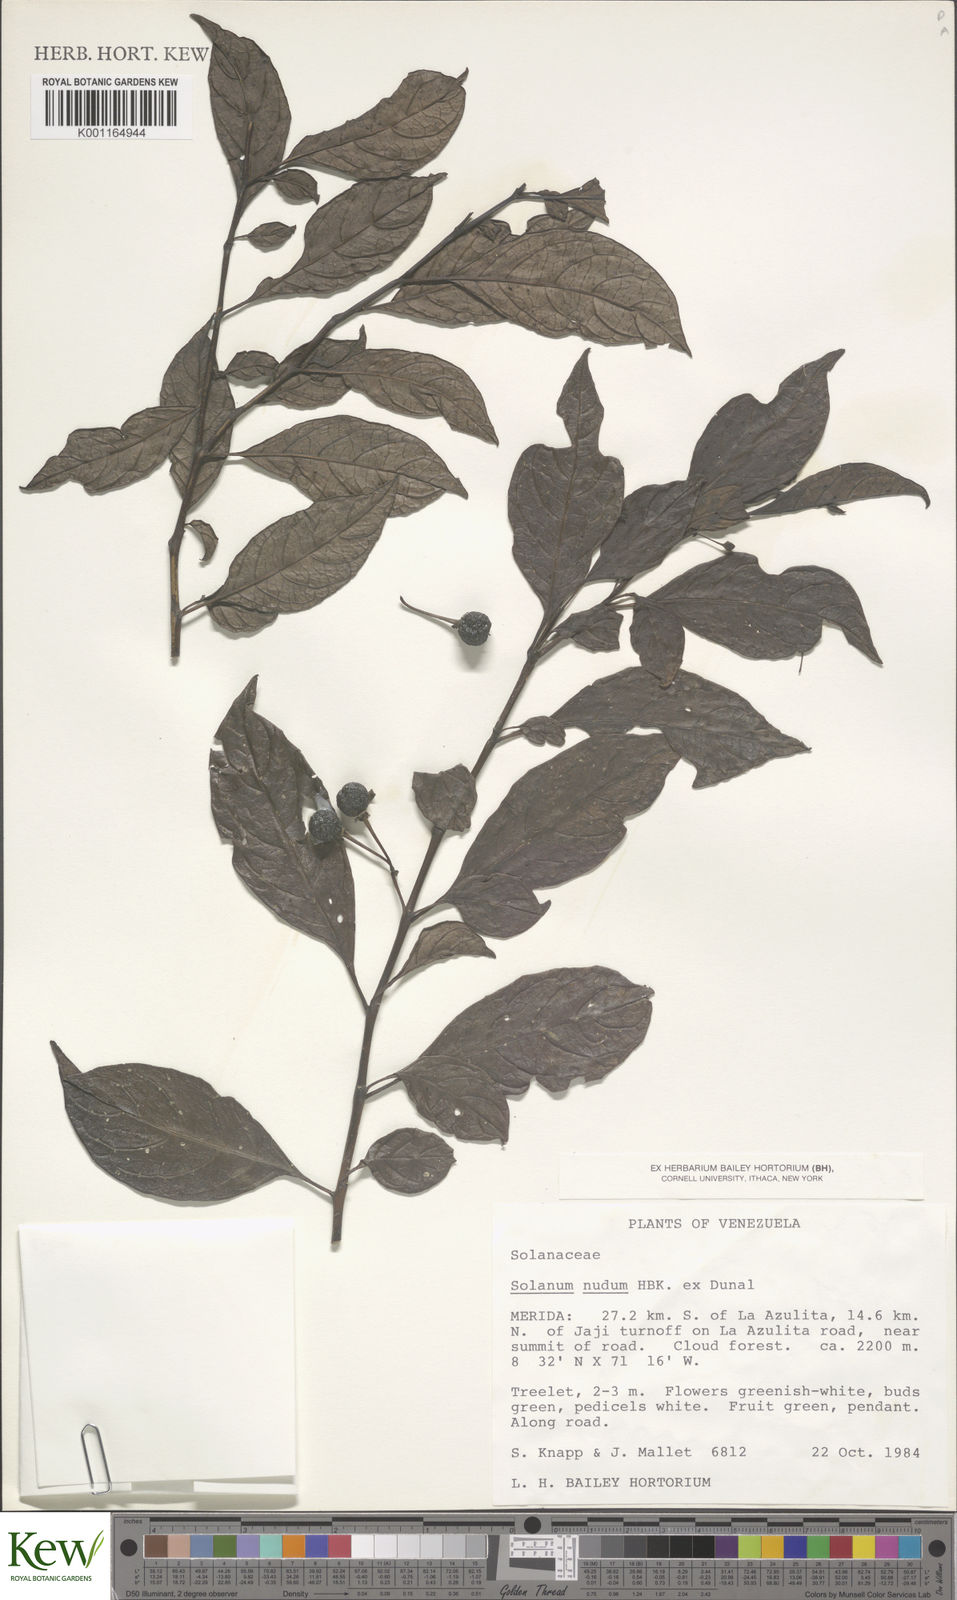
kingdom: Plantae
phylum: Tracheophyta
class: Magnoliopsida
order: Solanales
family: Solanaceae
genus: Solanum
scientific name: Solanum nudum
